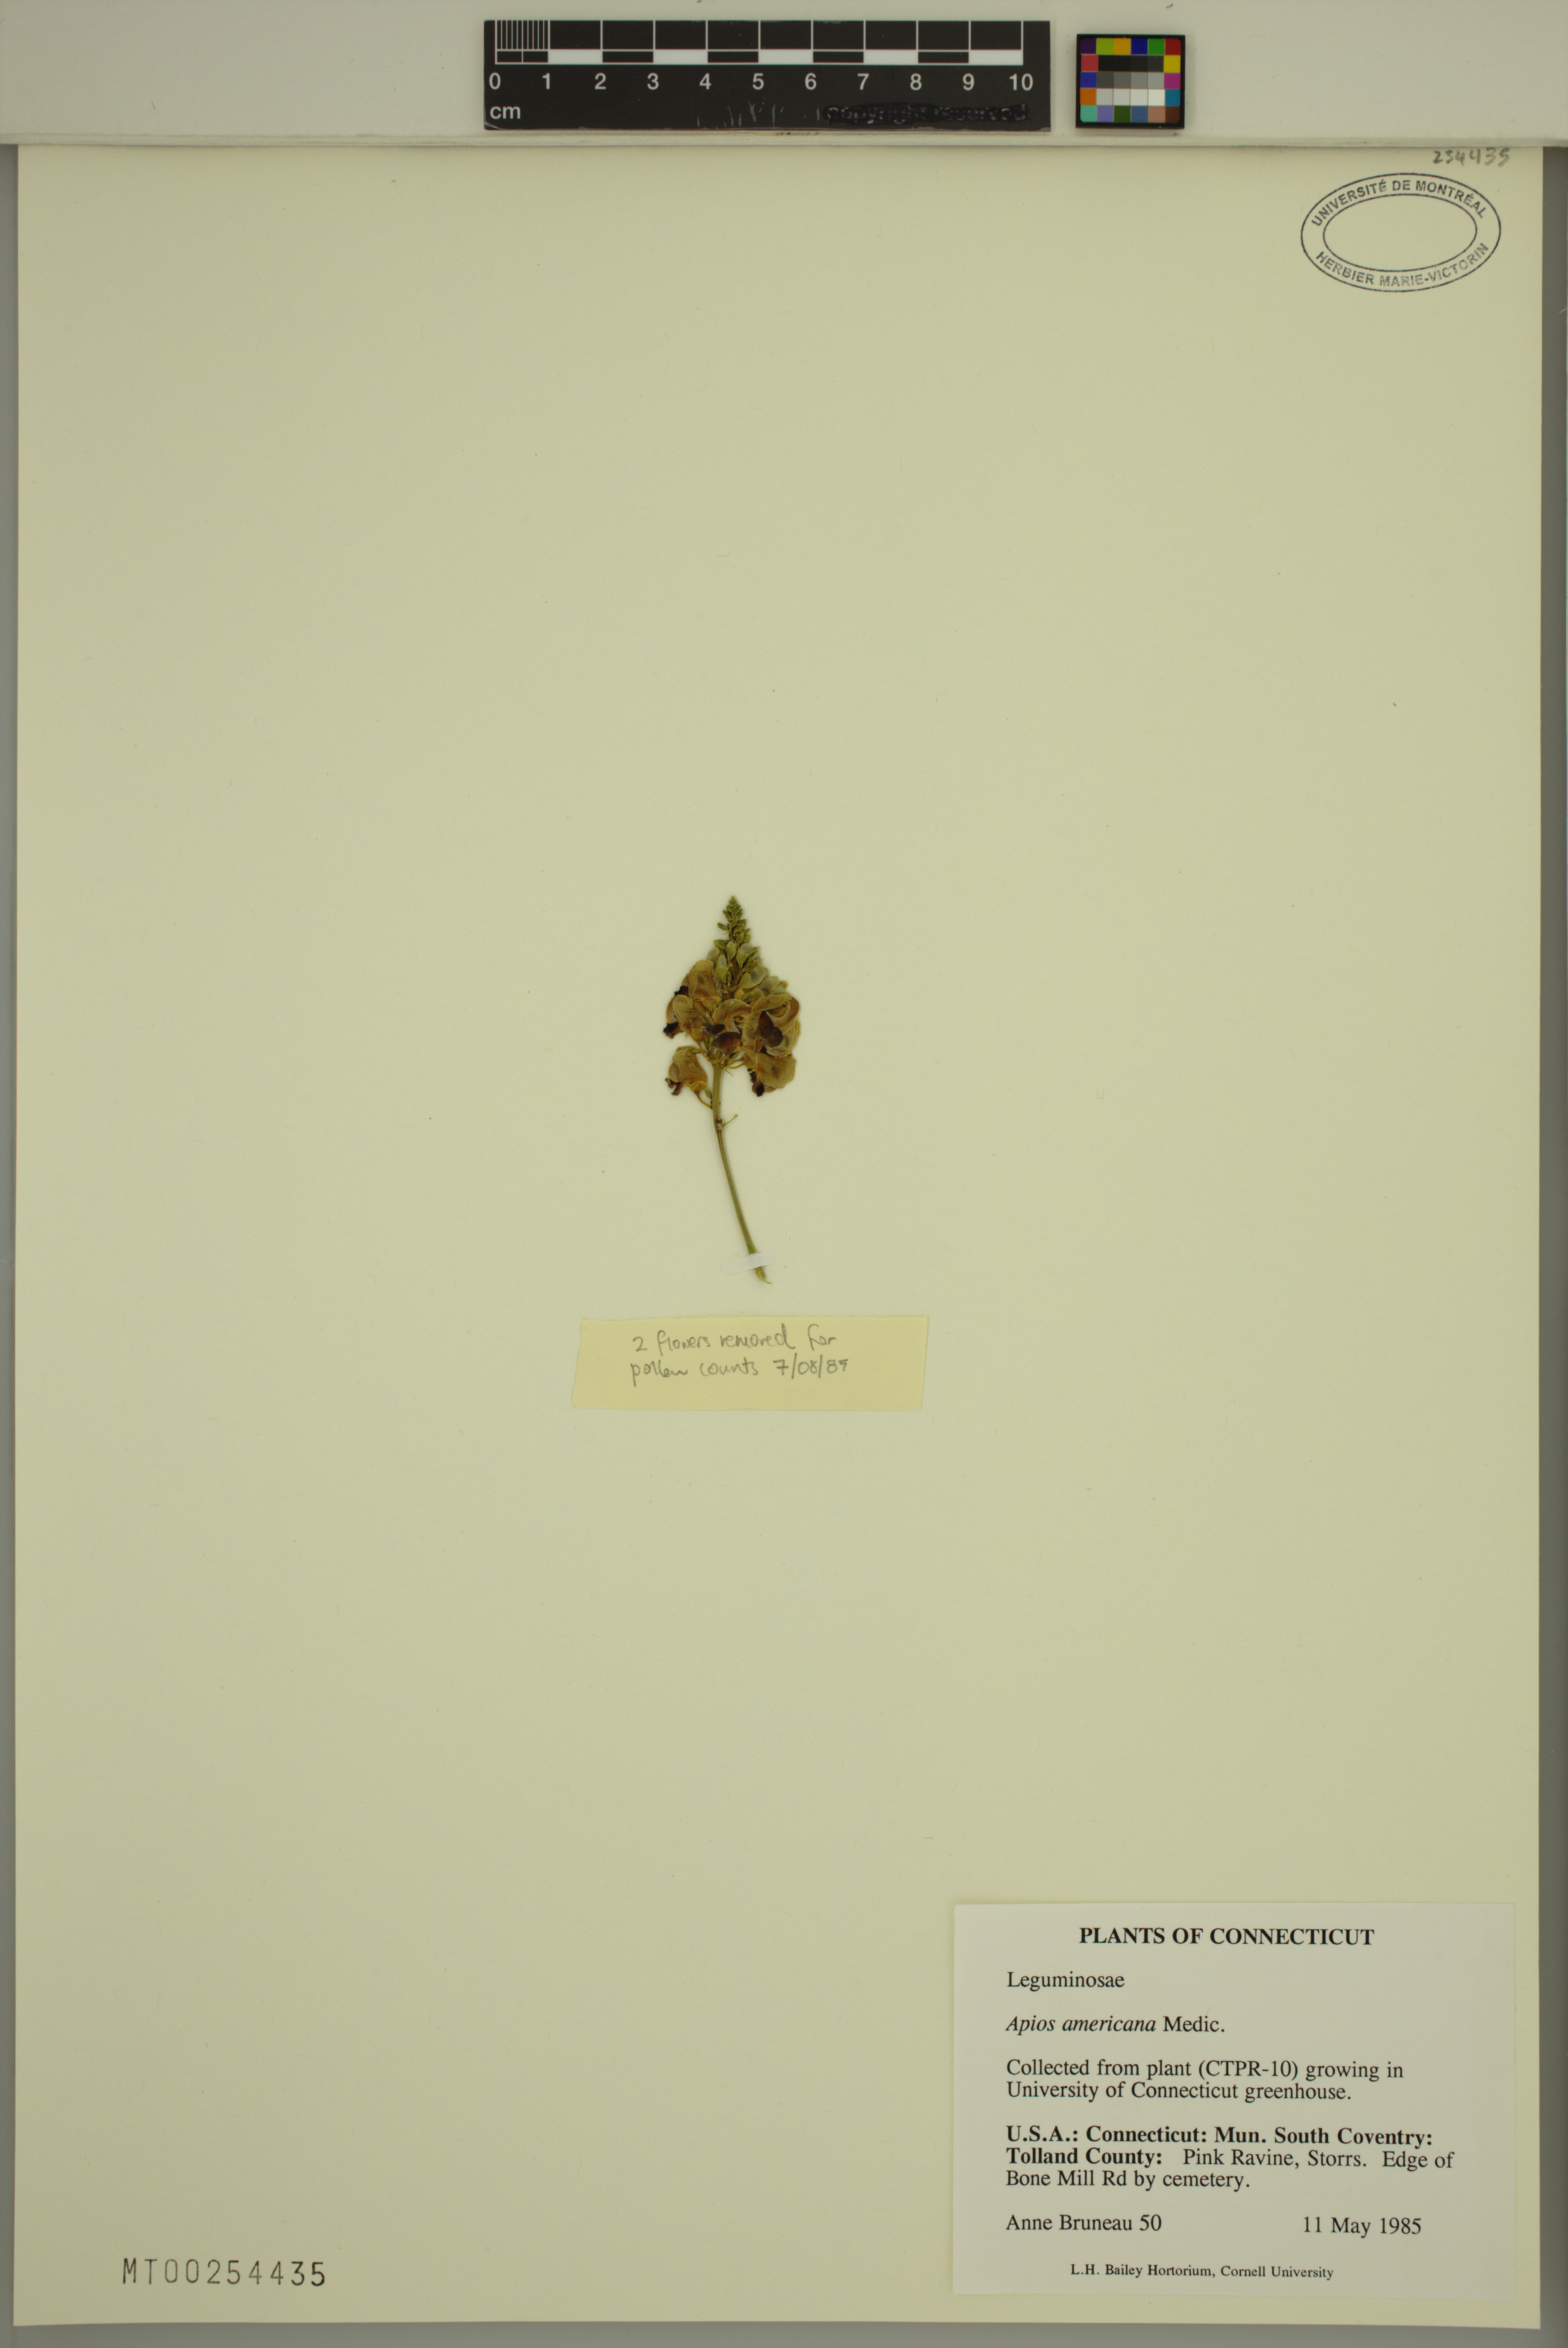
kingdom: Plantae
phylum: Tracheophyta
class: Magnoliopsida
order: Fabales
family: Fabaceae
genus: Apios
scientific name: Apios americana
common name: American potato-bean
